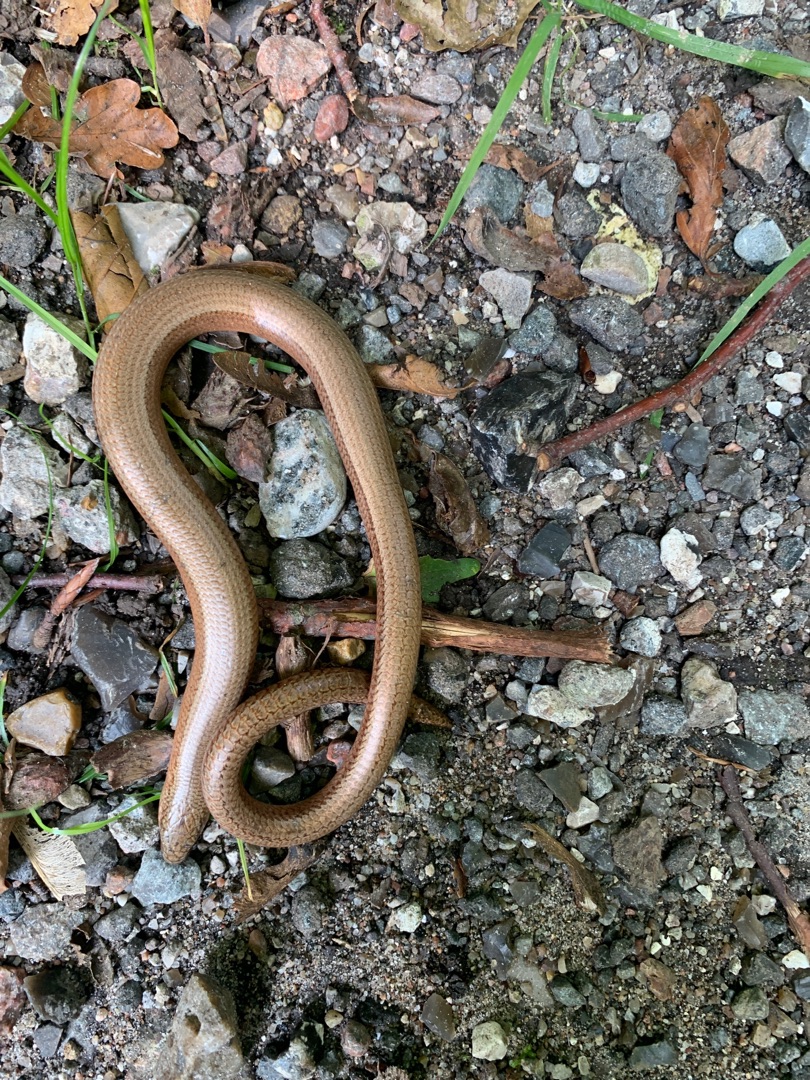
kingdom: Animalia
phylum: Chordata
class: Squamata
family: Anguidae
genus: Anguis
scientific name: Anguis fragilis
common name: Stålorm
